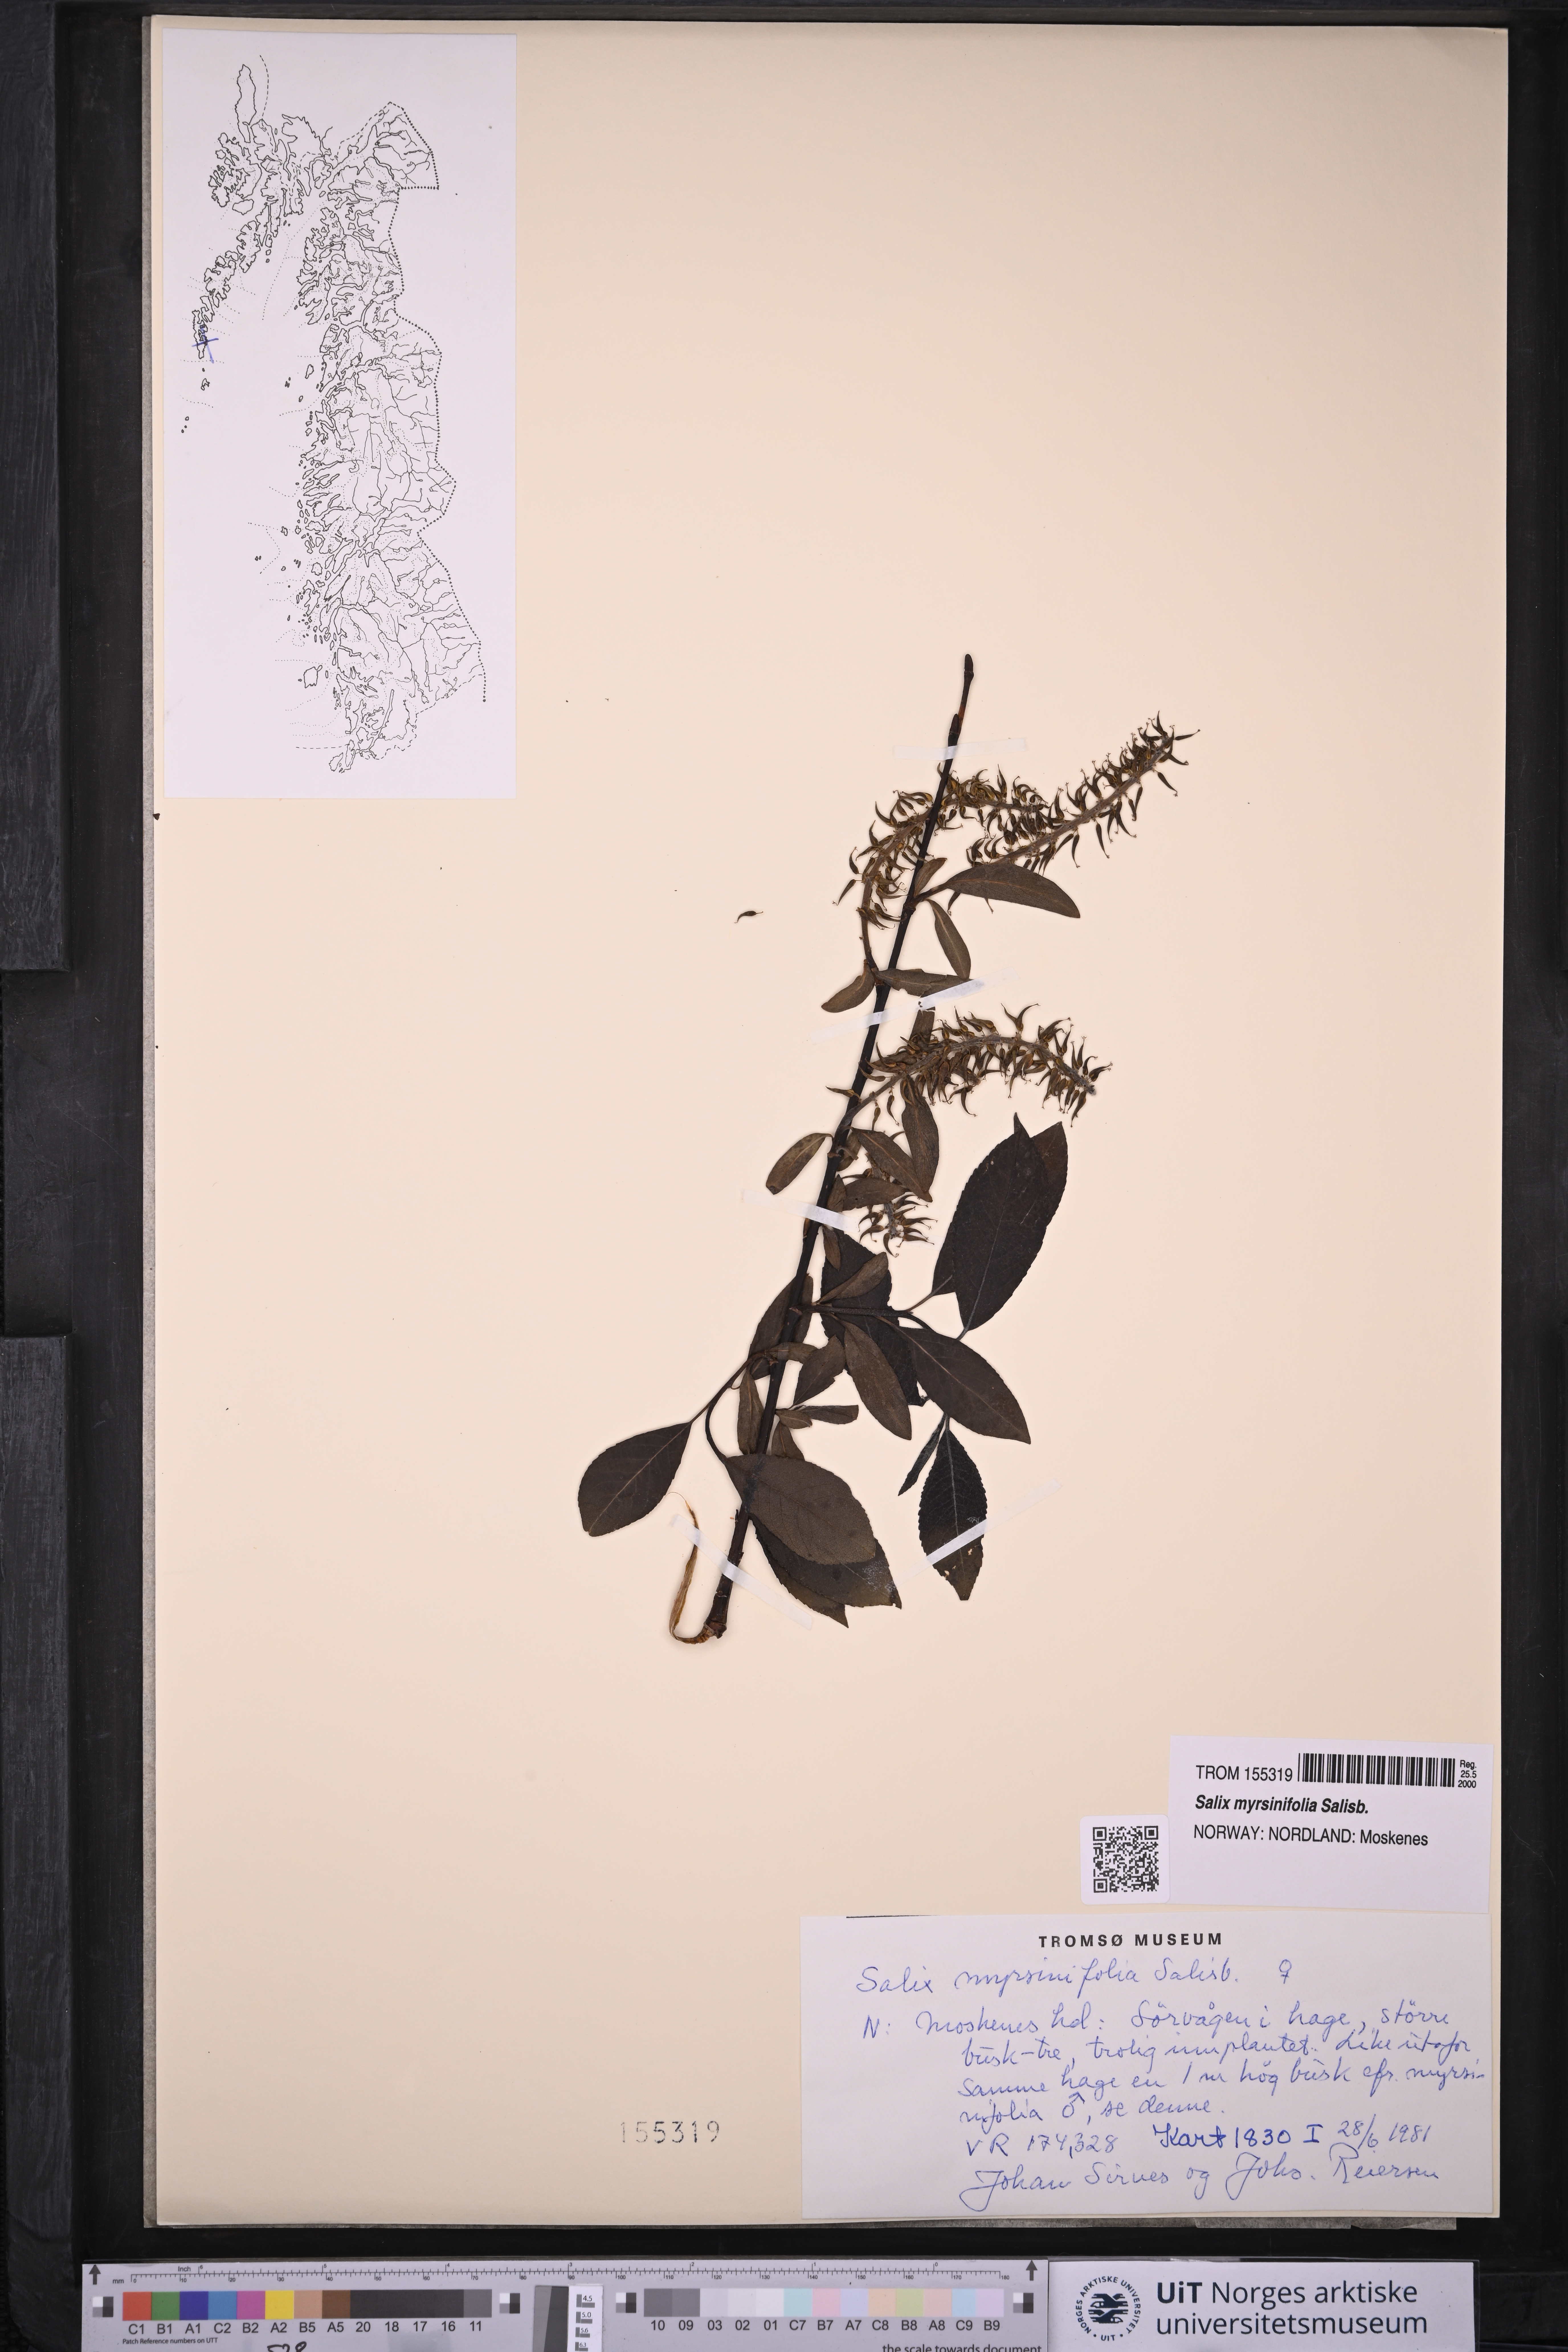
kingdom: Plantae
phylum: Tracheophyta
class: Magnoliopsida
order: Malpighiales
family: Salicaceae
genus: Salix
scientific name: Salix myrsinifolia
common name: Dark-leaved willow
